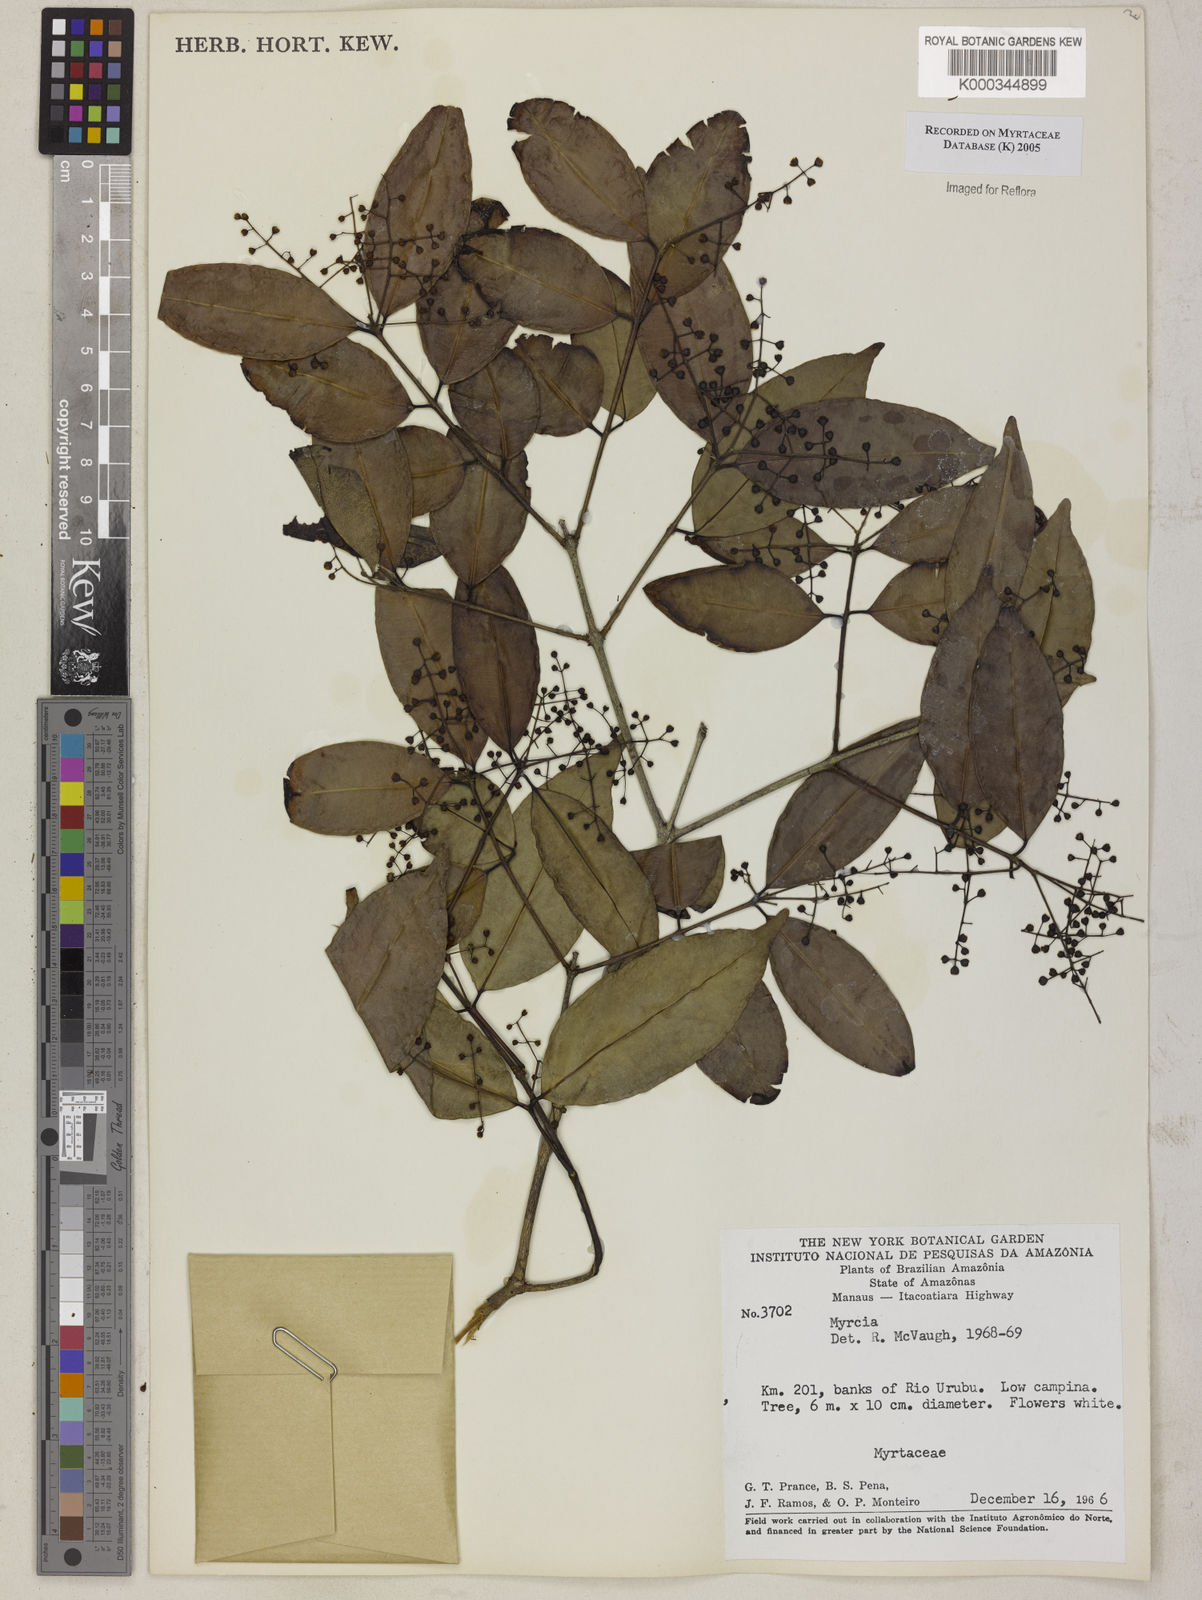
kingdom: Plantae
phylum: Tracheophyta
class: Magnoliopsida
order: Myrtales
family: Myrtaceae
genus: Myrcia
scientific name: Myrcia
